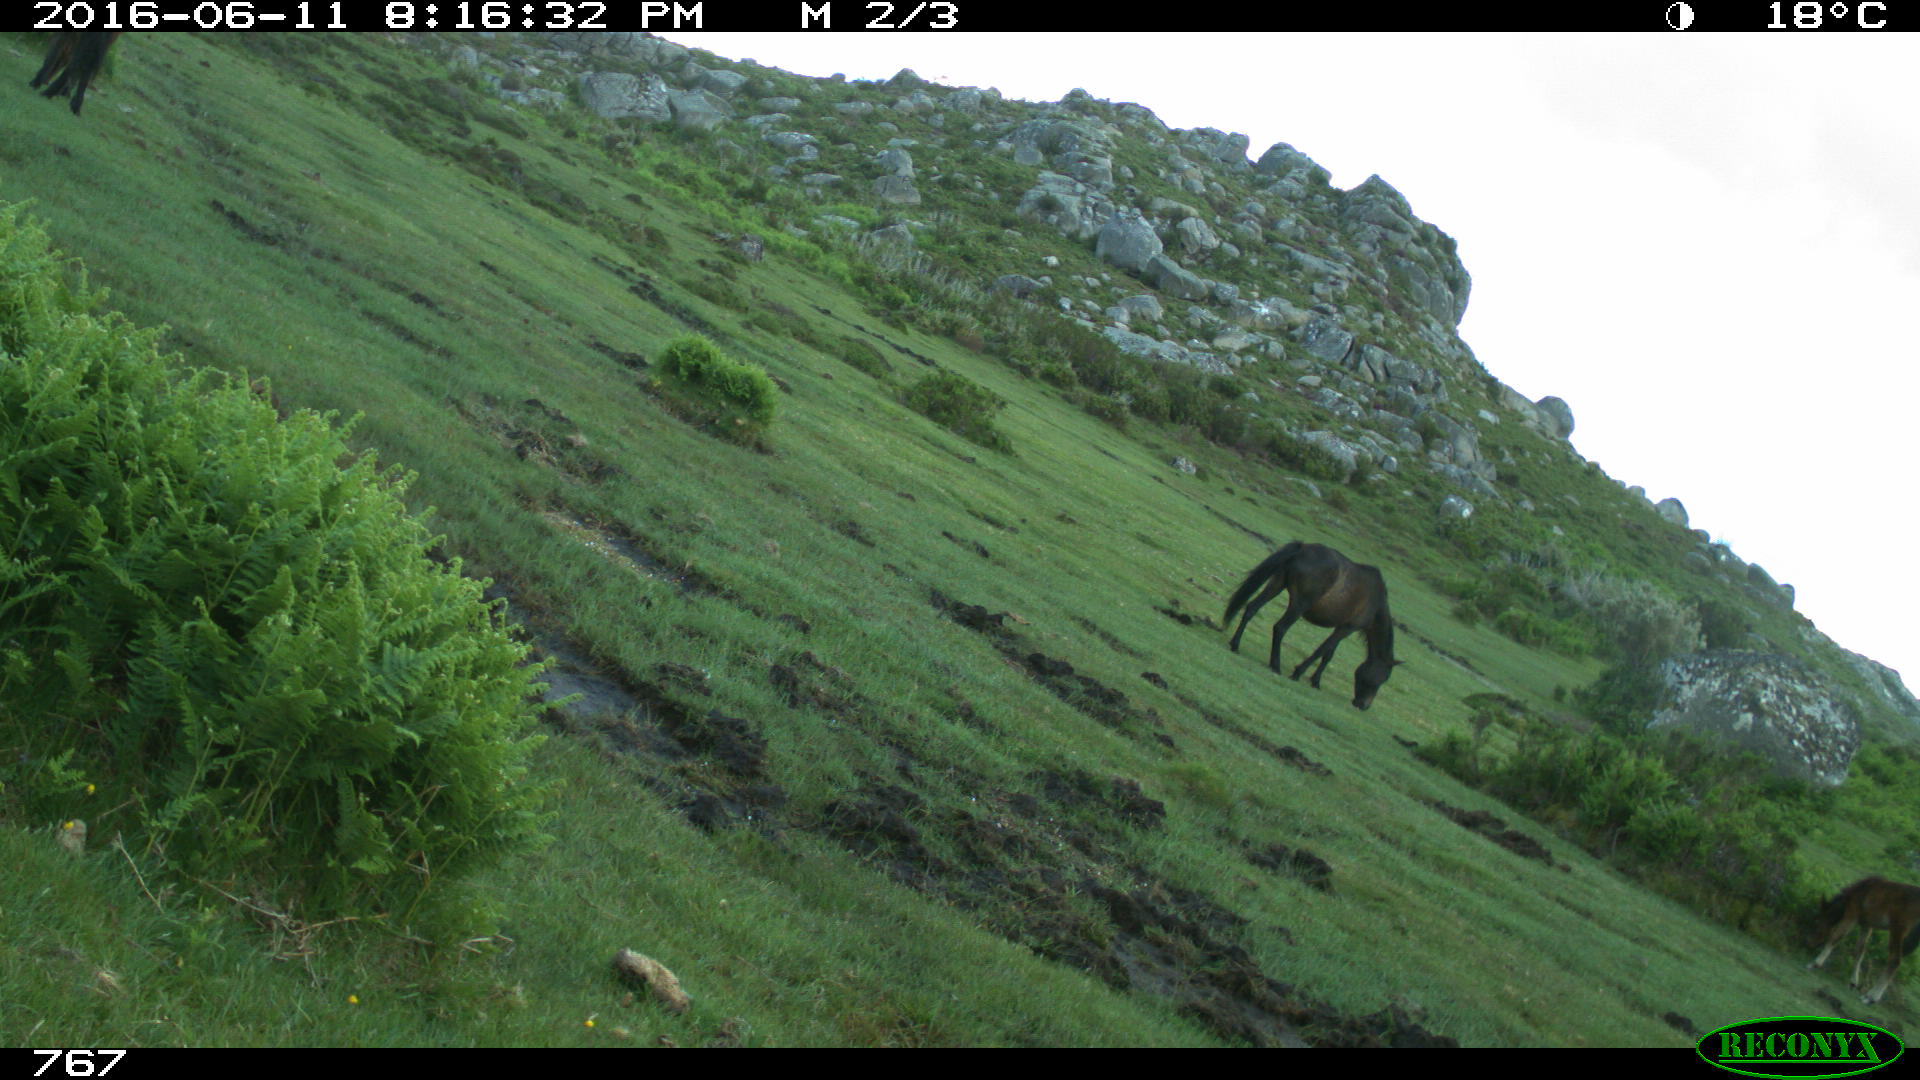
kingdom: Animalia
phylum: Chordata
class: Mammalia
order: Perissodactyla
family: Equidae
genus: Equus
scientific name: Equus caballus
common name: Horse
